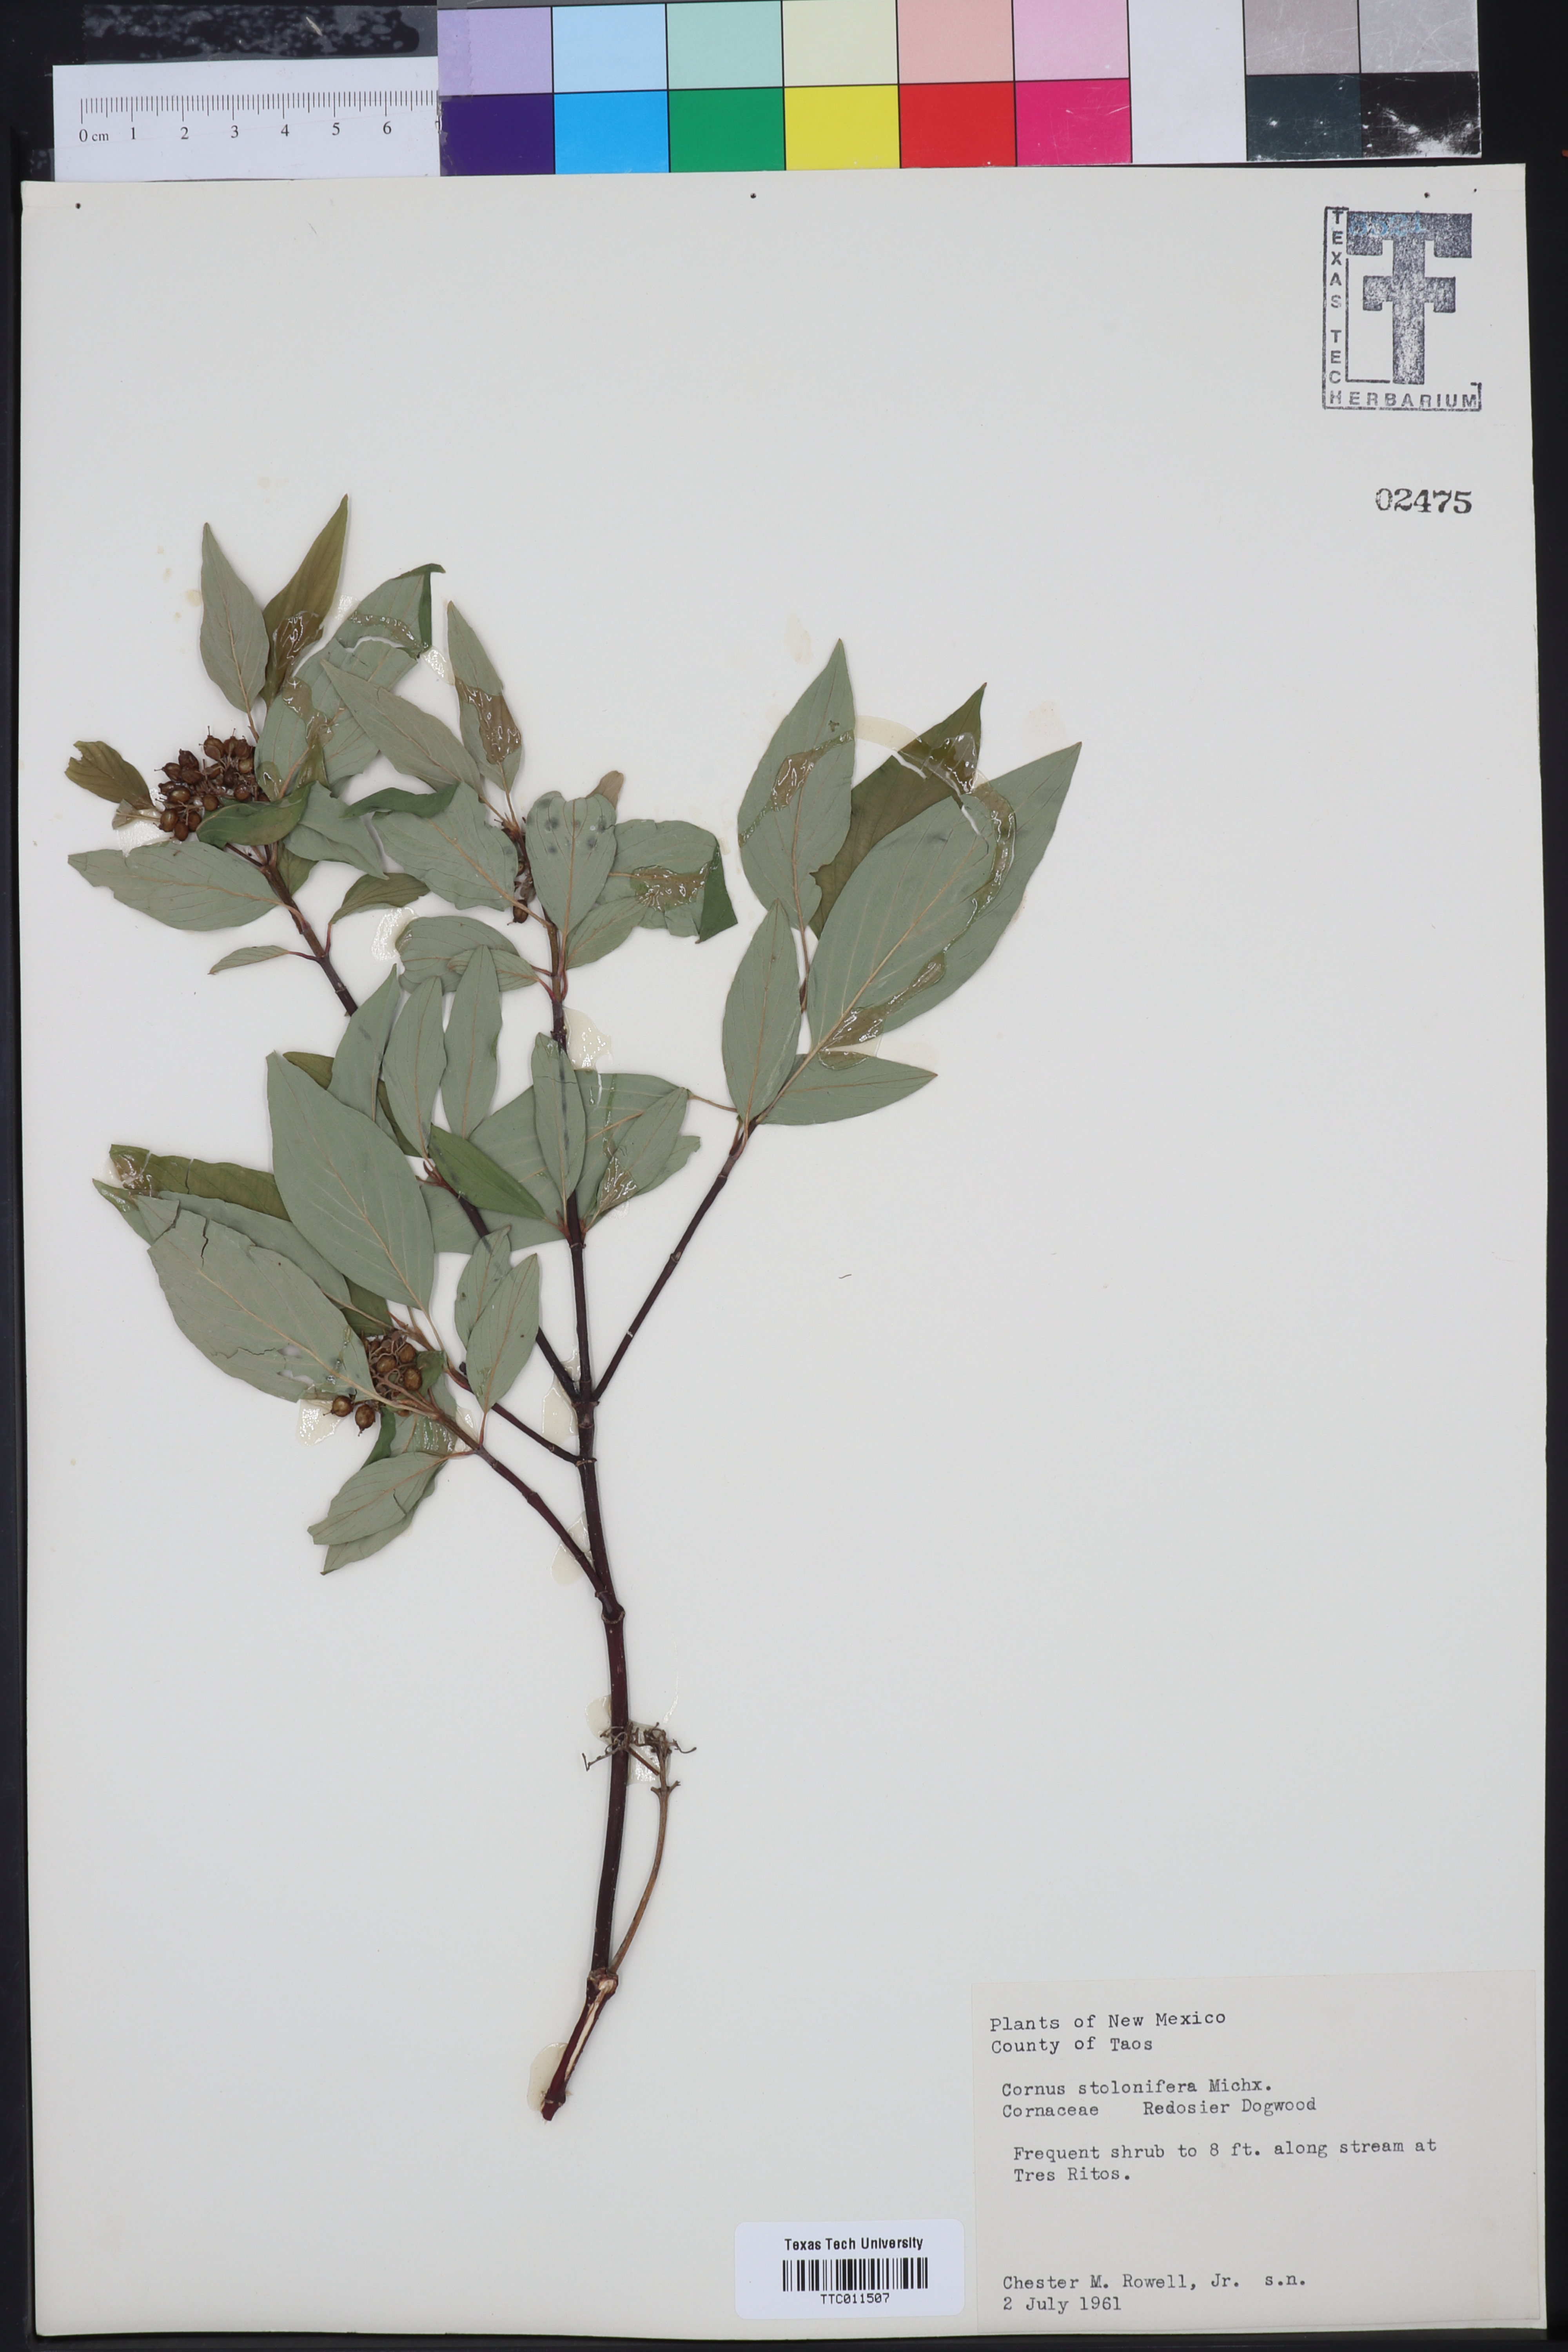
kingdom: Plantae
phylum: Tracheophyta
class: Magnoliopsida
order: Cornales
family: Cornaceae
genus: Cornus
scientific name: Cornus sericea
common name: Red-osier dogwood
